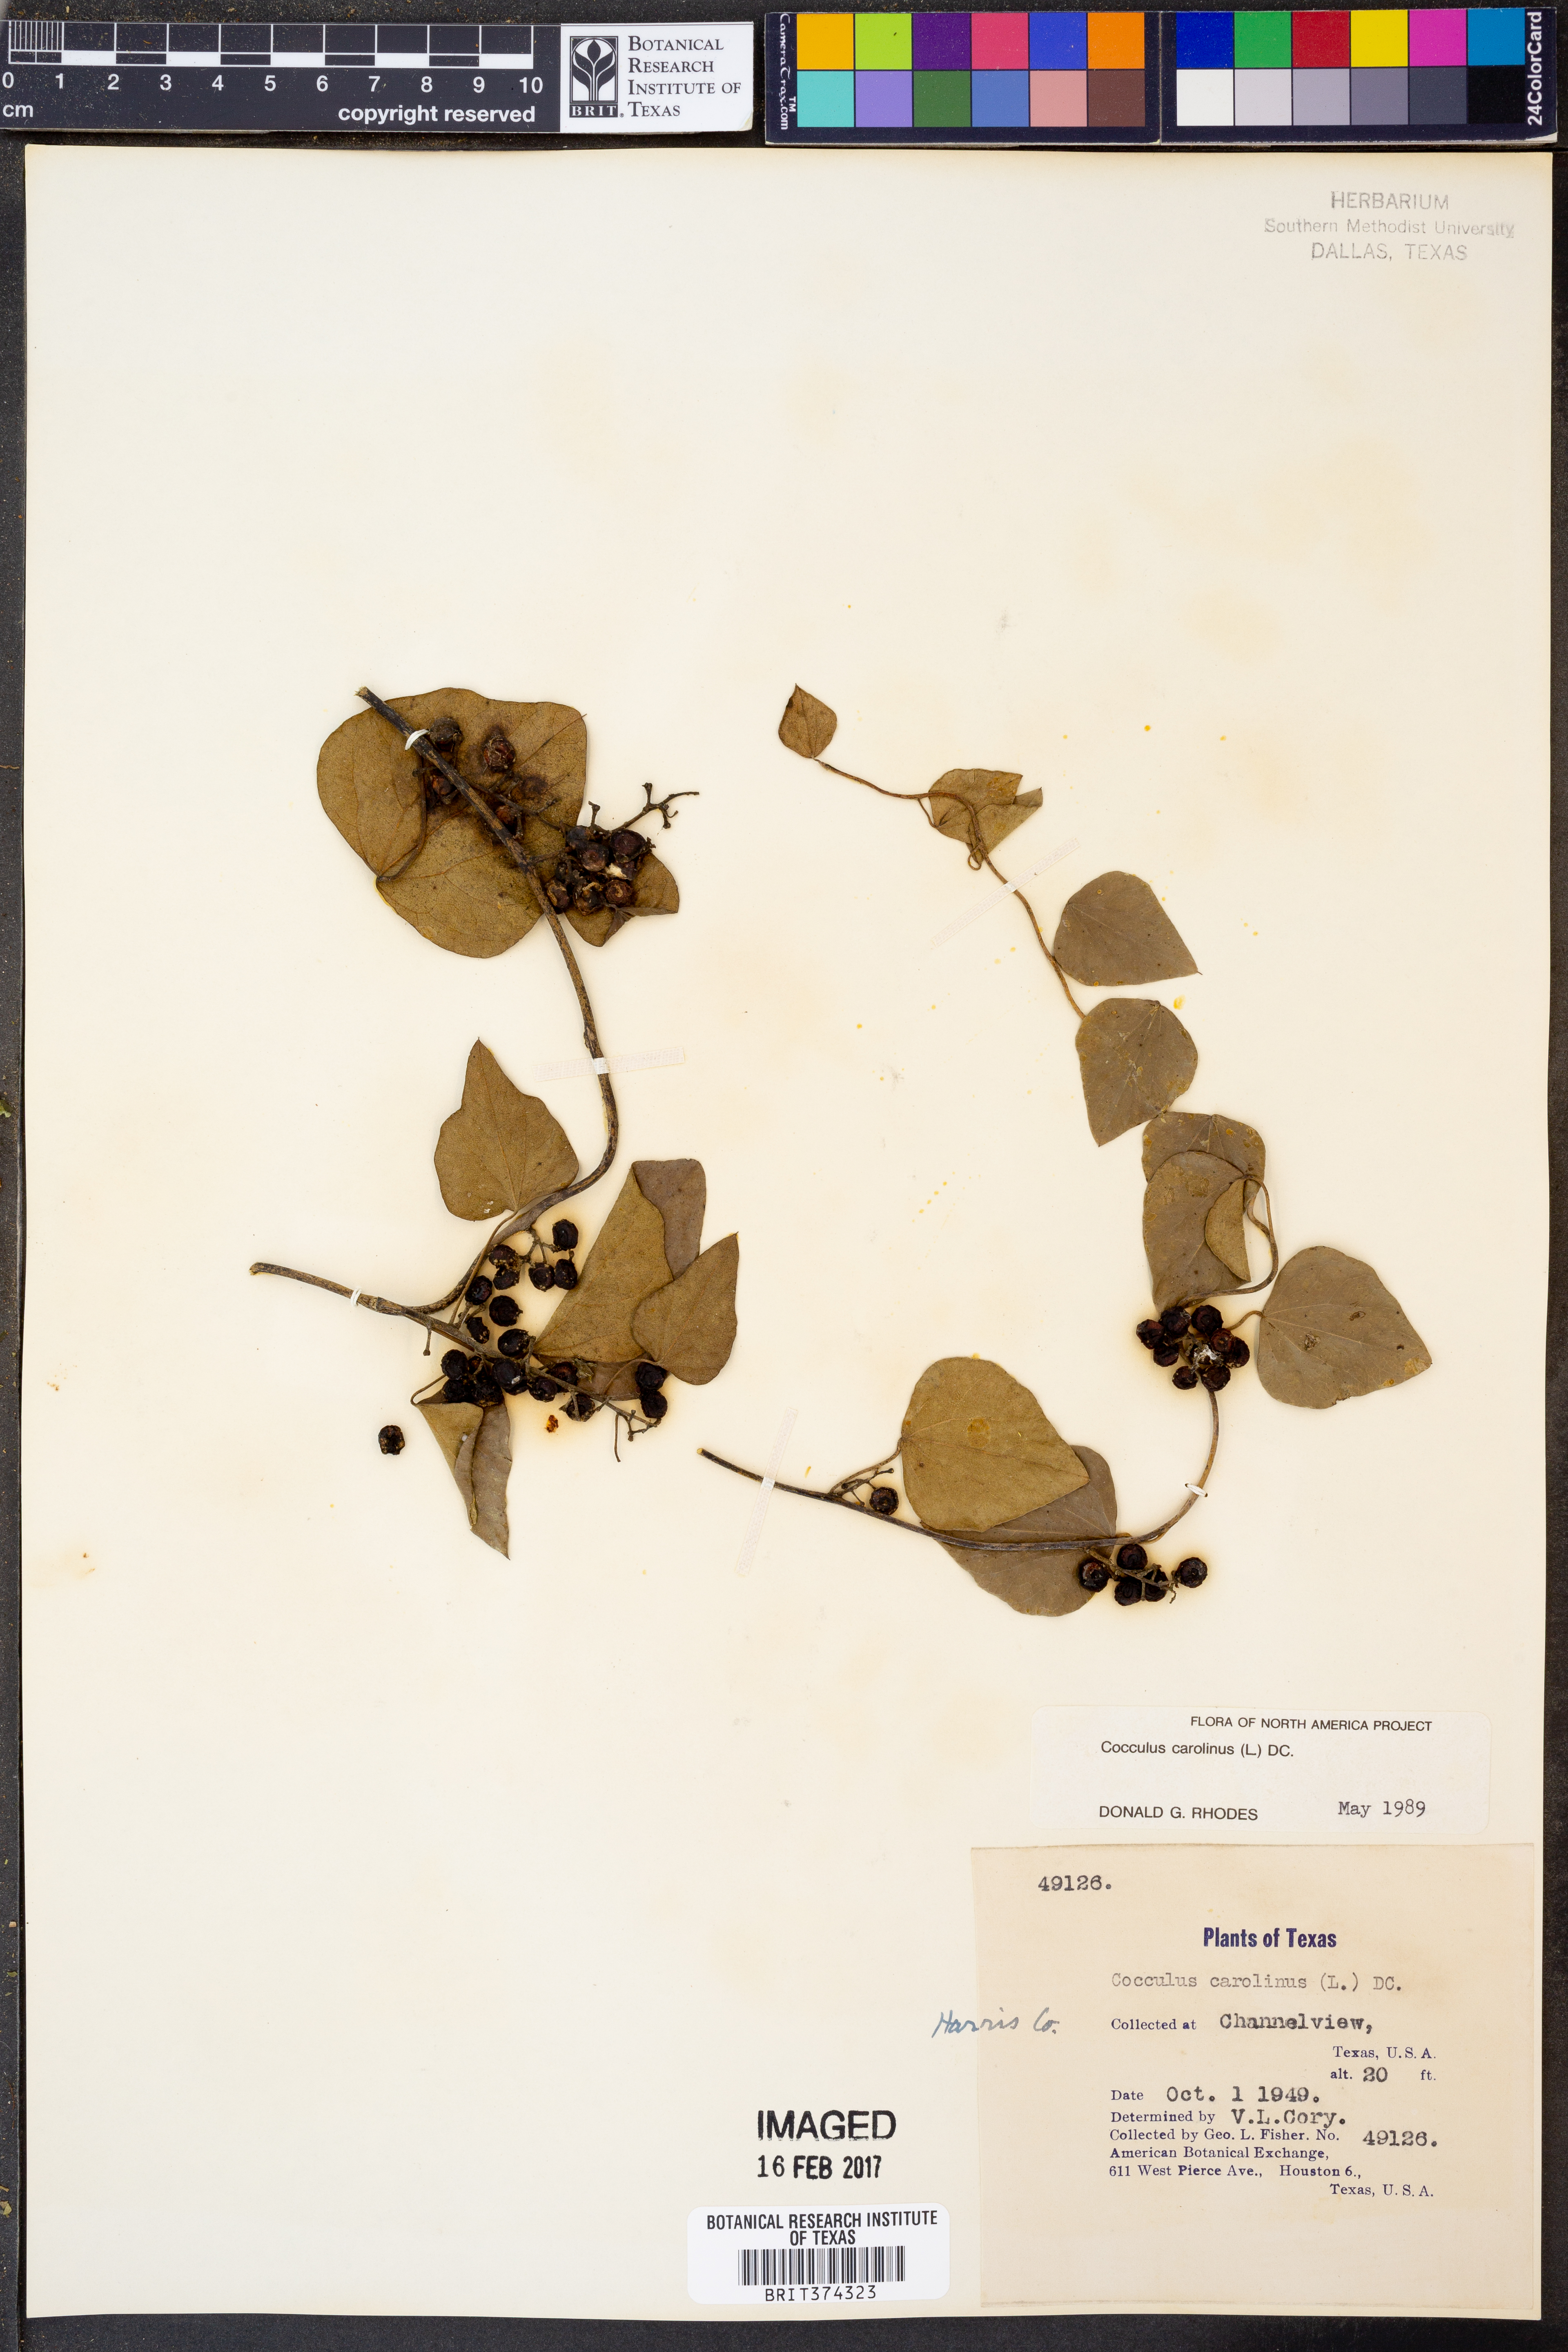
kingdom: Plantae
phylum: Tracheophyta
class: Magnoliopsida
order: Ranunculales
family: Menispermaceae
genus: Cocculus
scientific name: Cocculus carolinus
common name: Carolina moonseed
